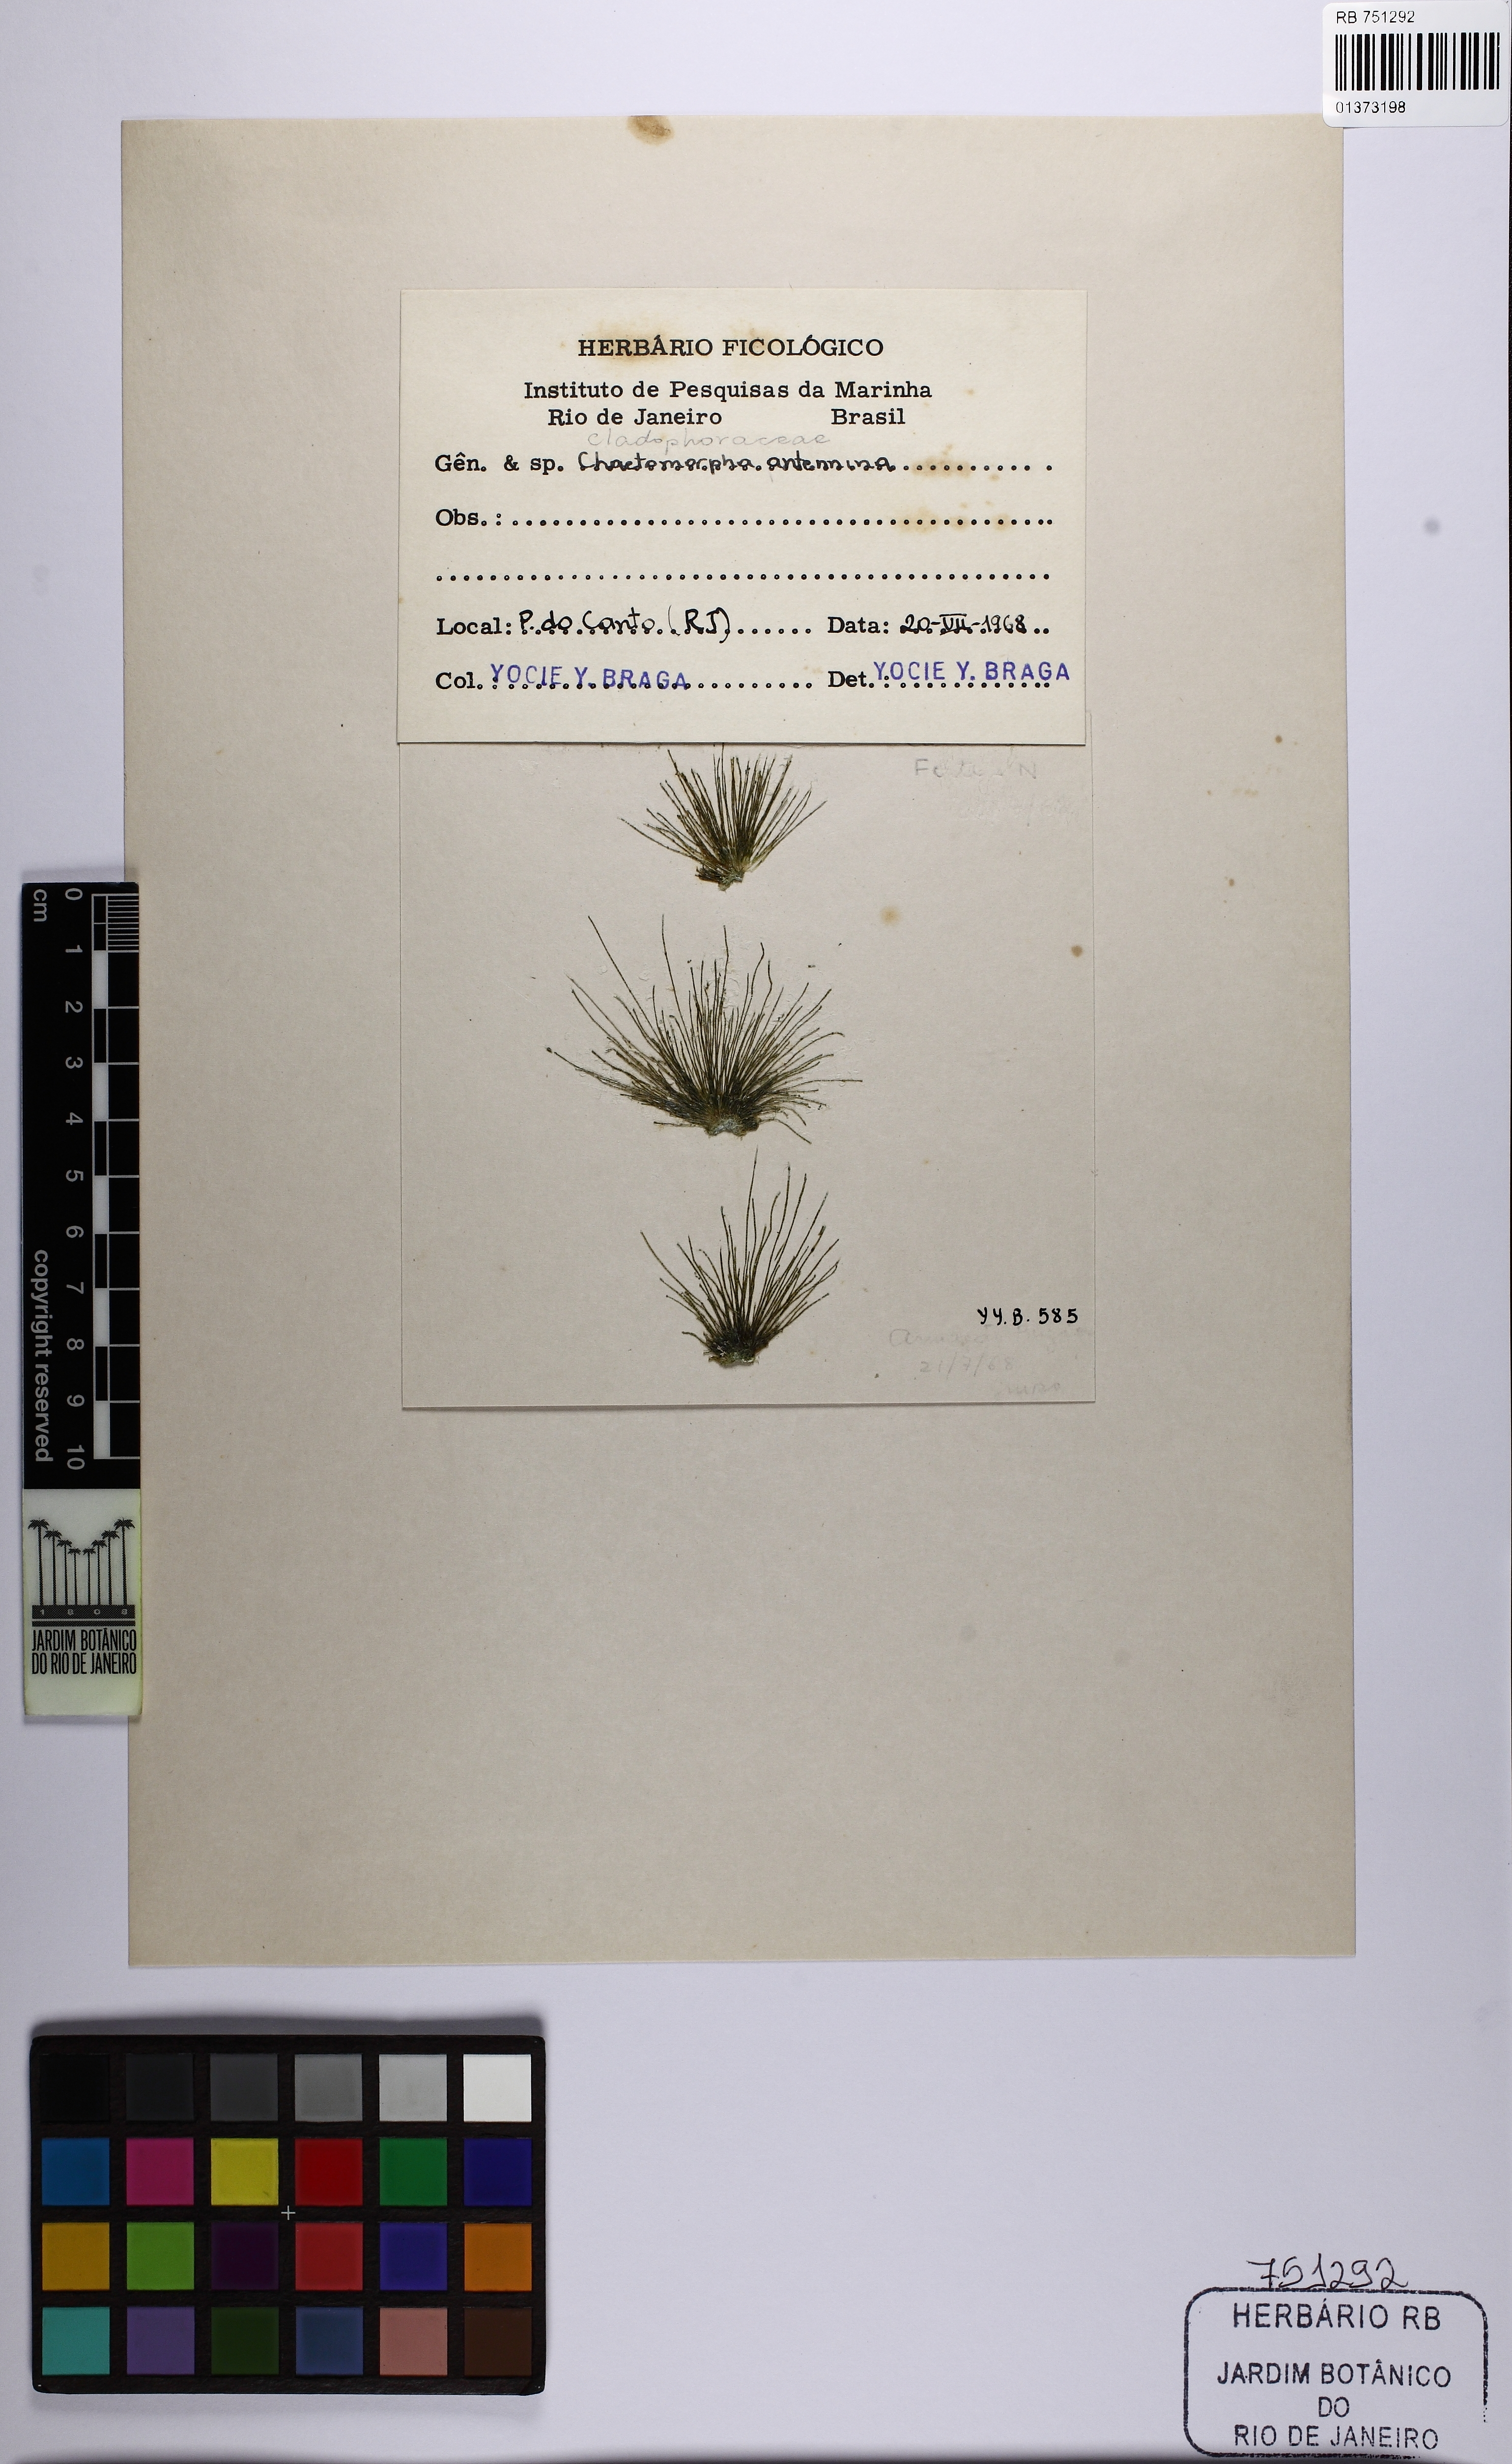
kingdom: Plantae
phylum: Chlorophyta
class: Ulvophyceae
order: Cladophorales
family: Cladophoraceae
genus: Chaetomorpha
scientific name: Chaetomorpha antennina
